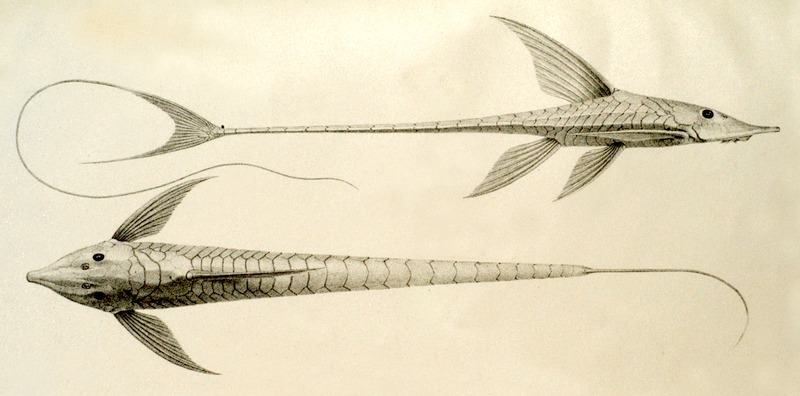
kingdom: Animalia
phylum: Chordata
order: Siluriformes
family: Loricariidae
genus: Sturisomatichthys
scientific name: Sturisomatichthys aureum
